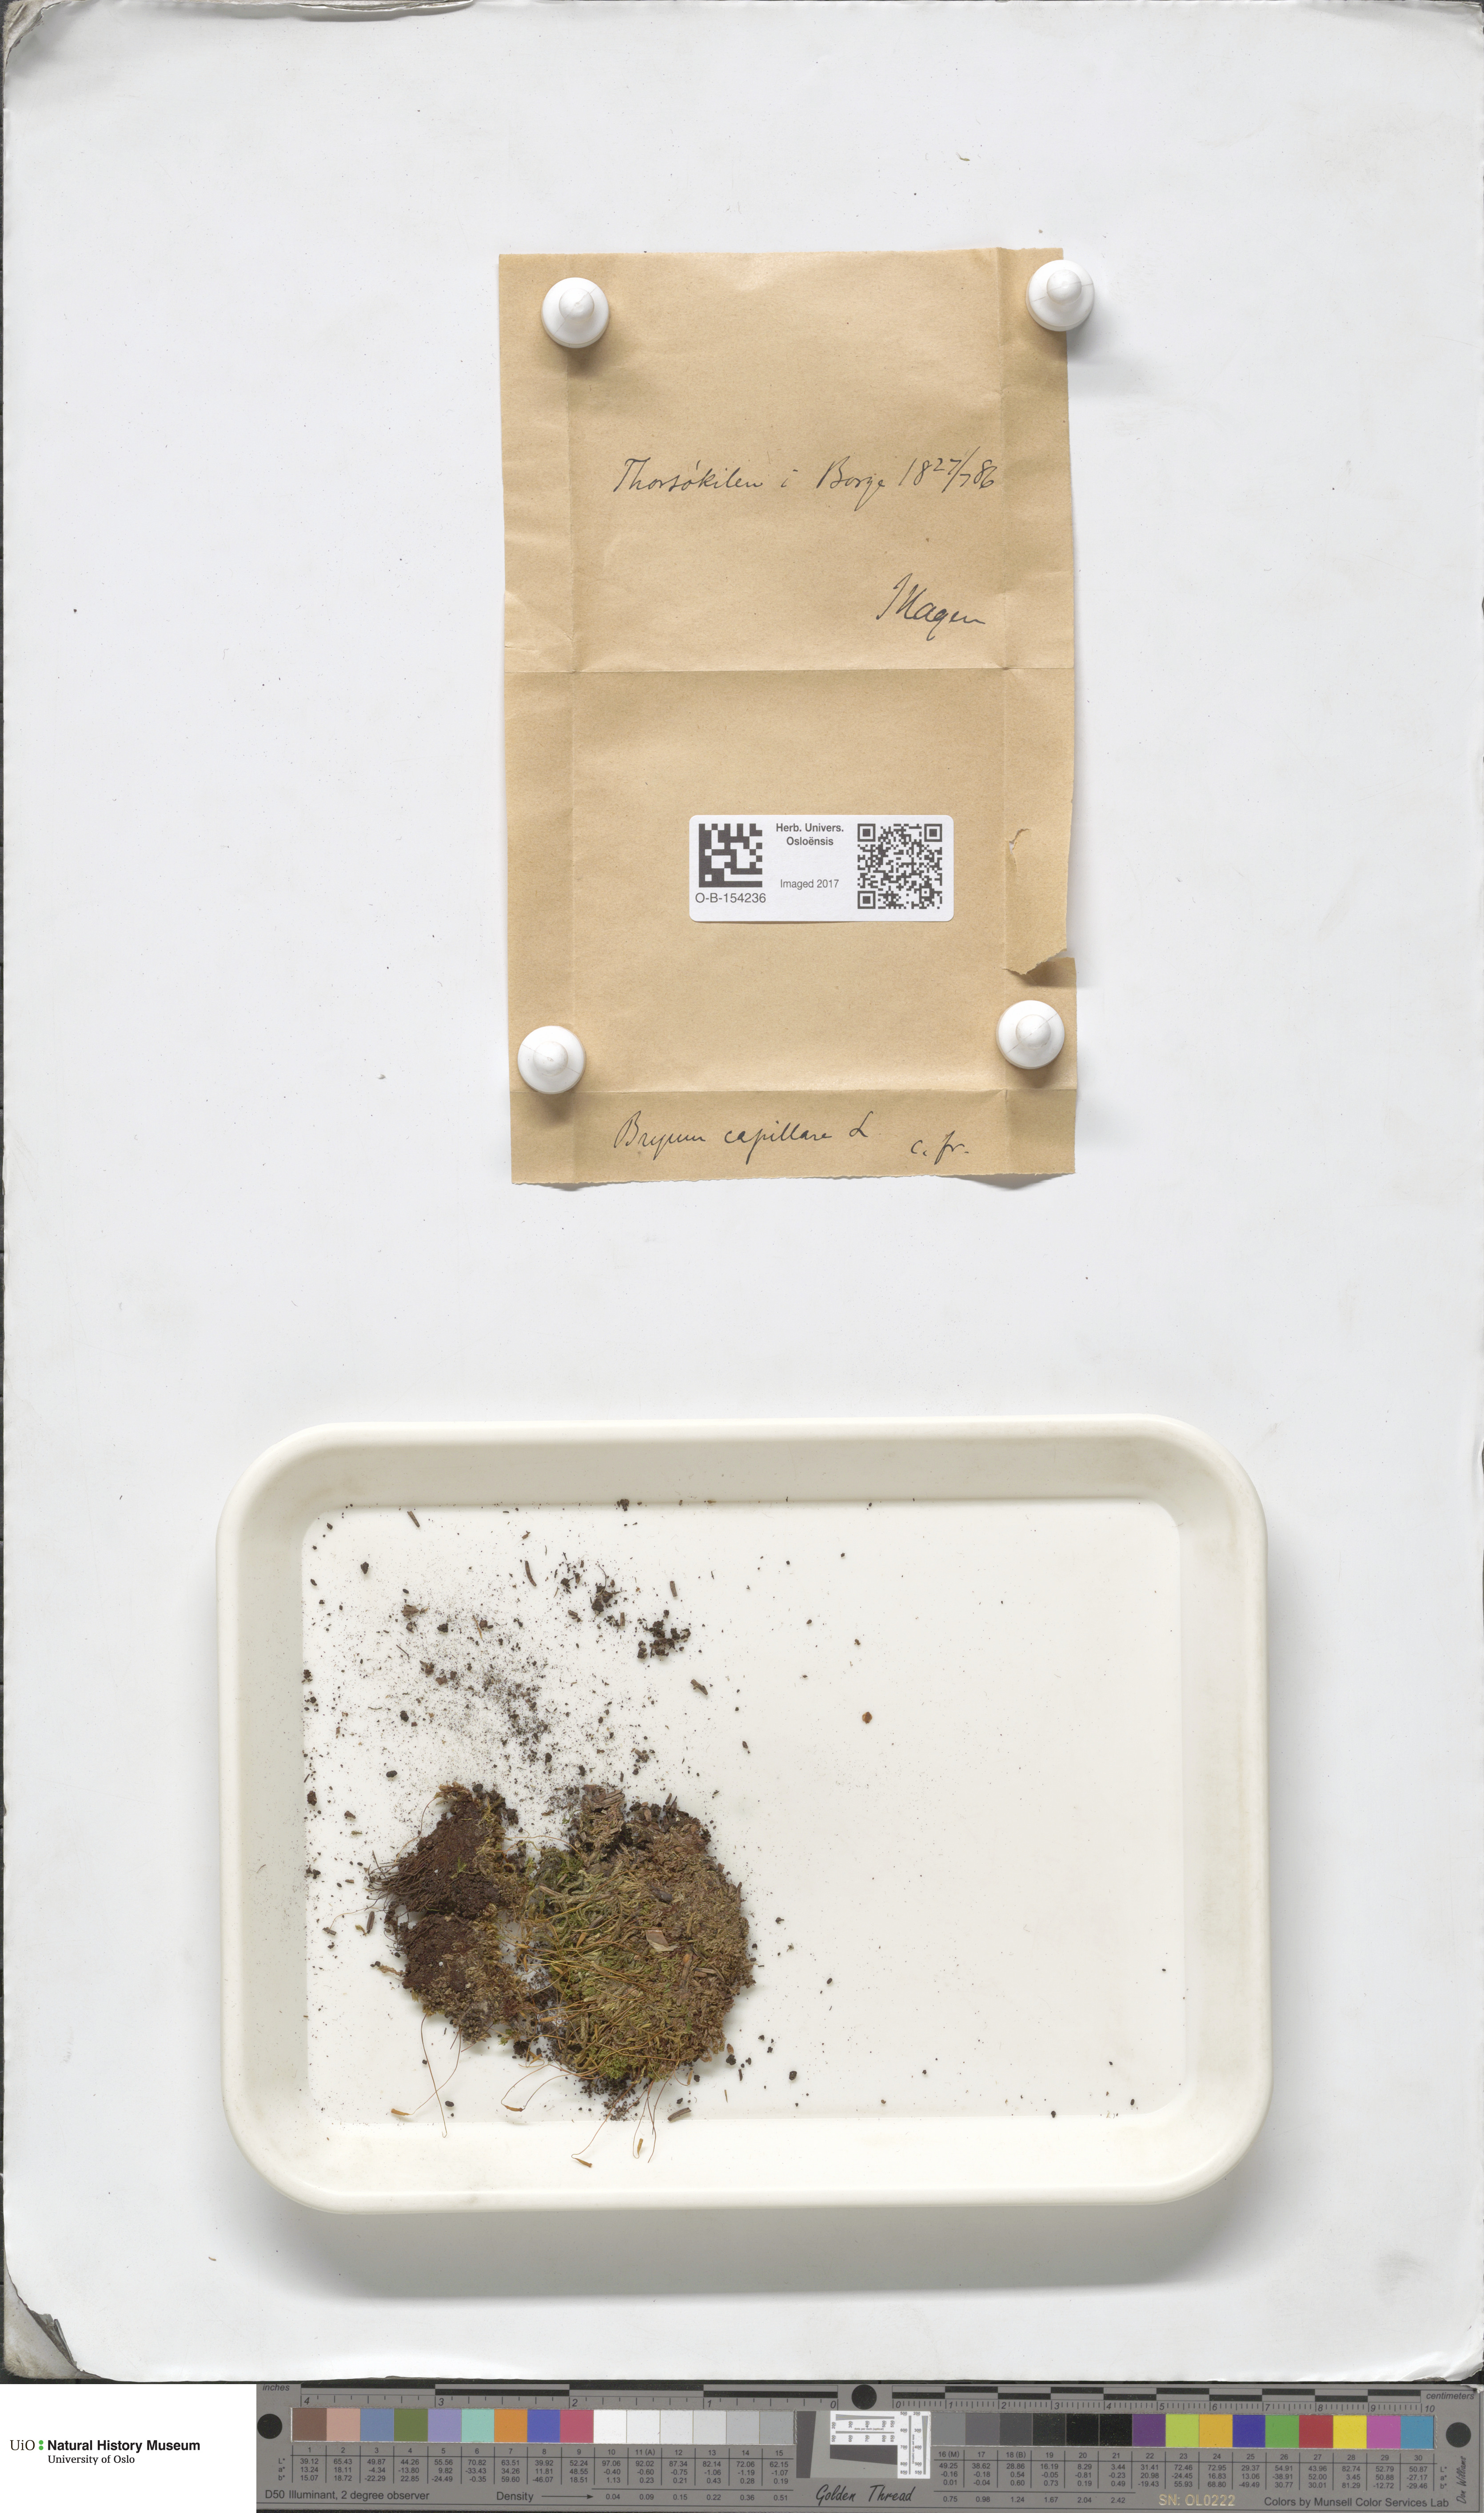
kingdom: Plantae
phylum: Bryophyta
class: Bryopsida
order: Bryales
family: Bryaceae
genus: Rosulabryum
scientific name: Rosulabryum capillare
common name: Capillary thread-moss
